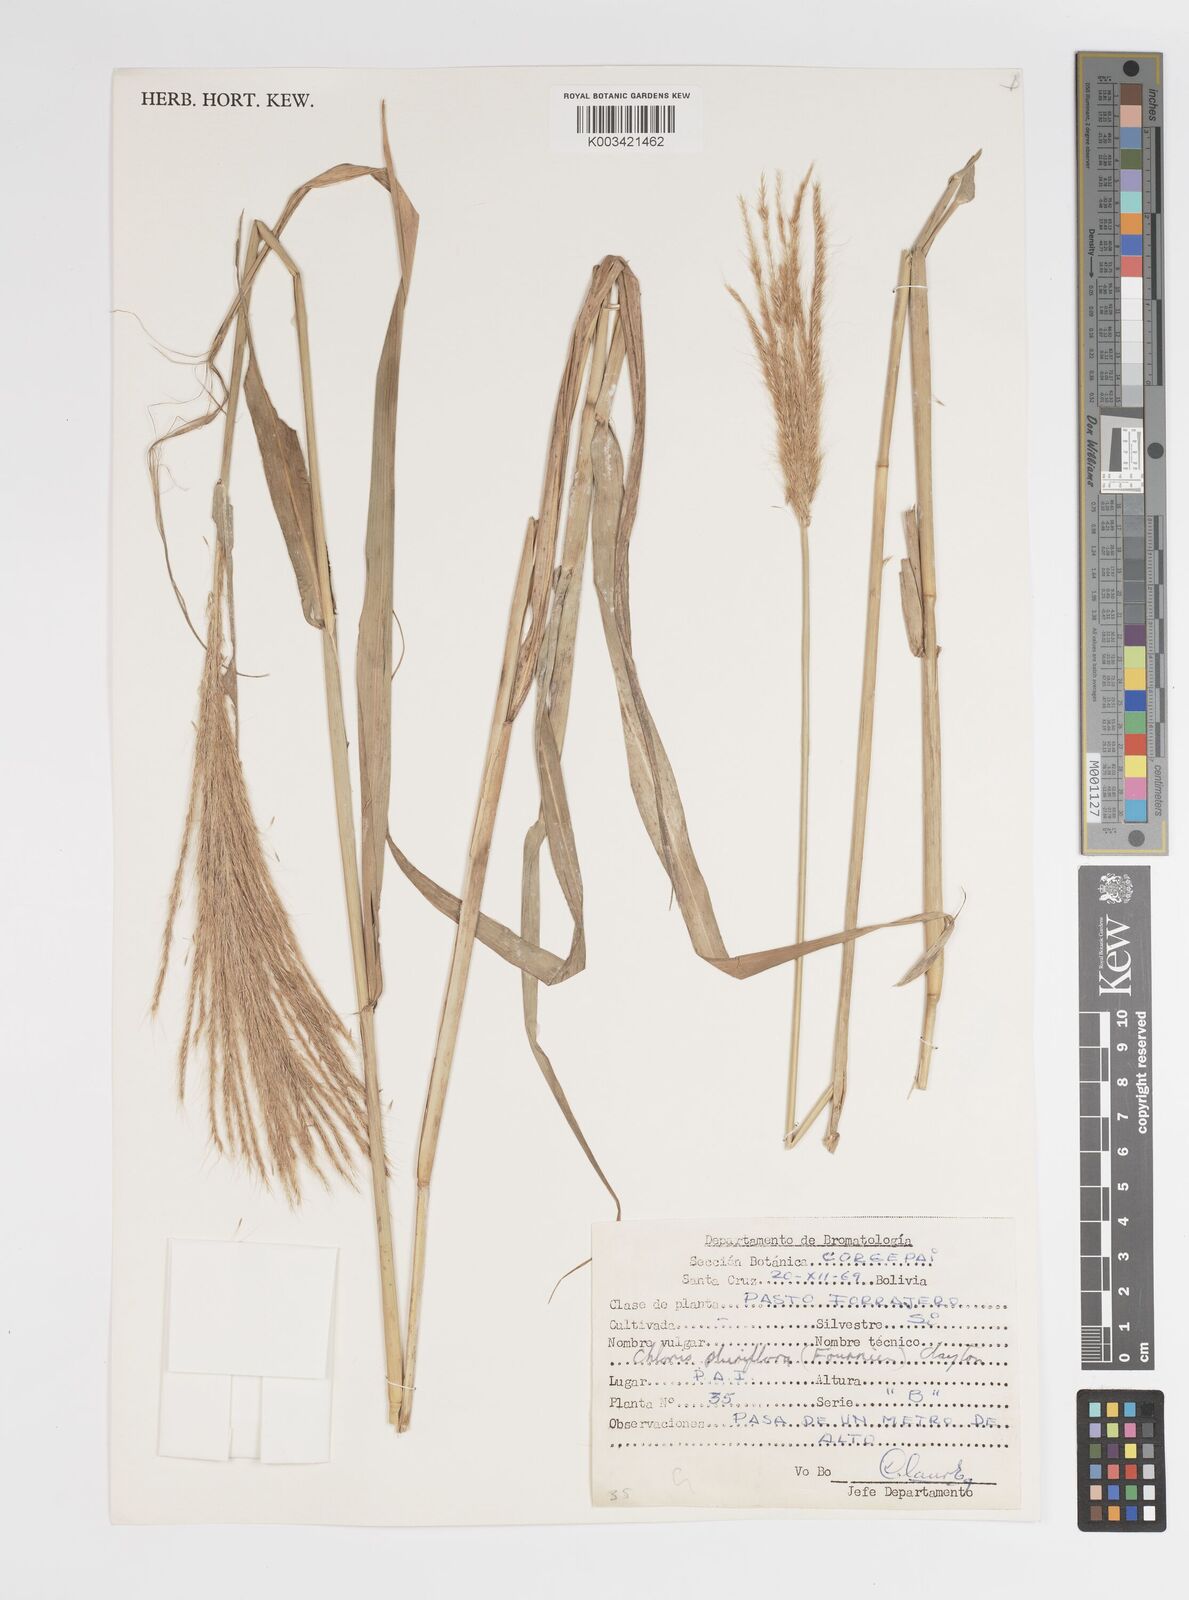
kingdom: Plantae
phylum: Tracheophyta
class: Liliopsida
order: Poales
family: Poaceae
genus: Leptochloa
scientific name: Leptochloa pluriflora
